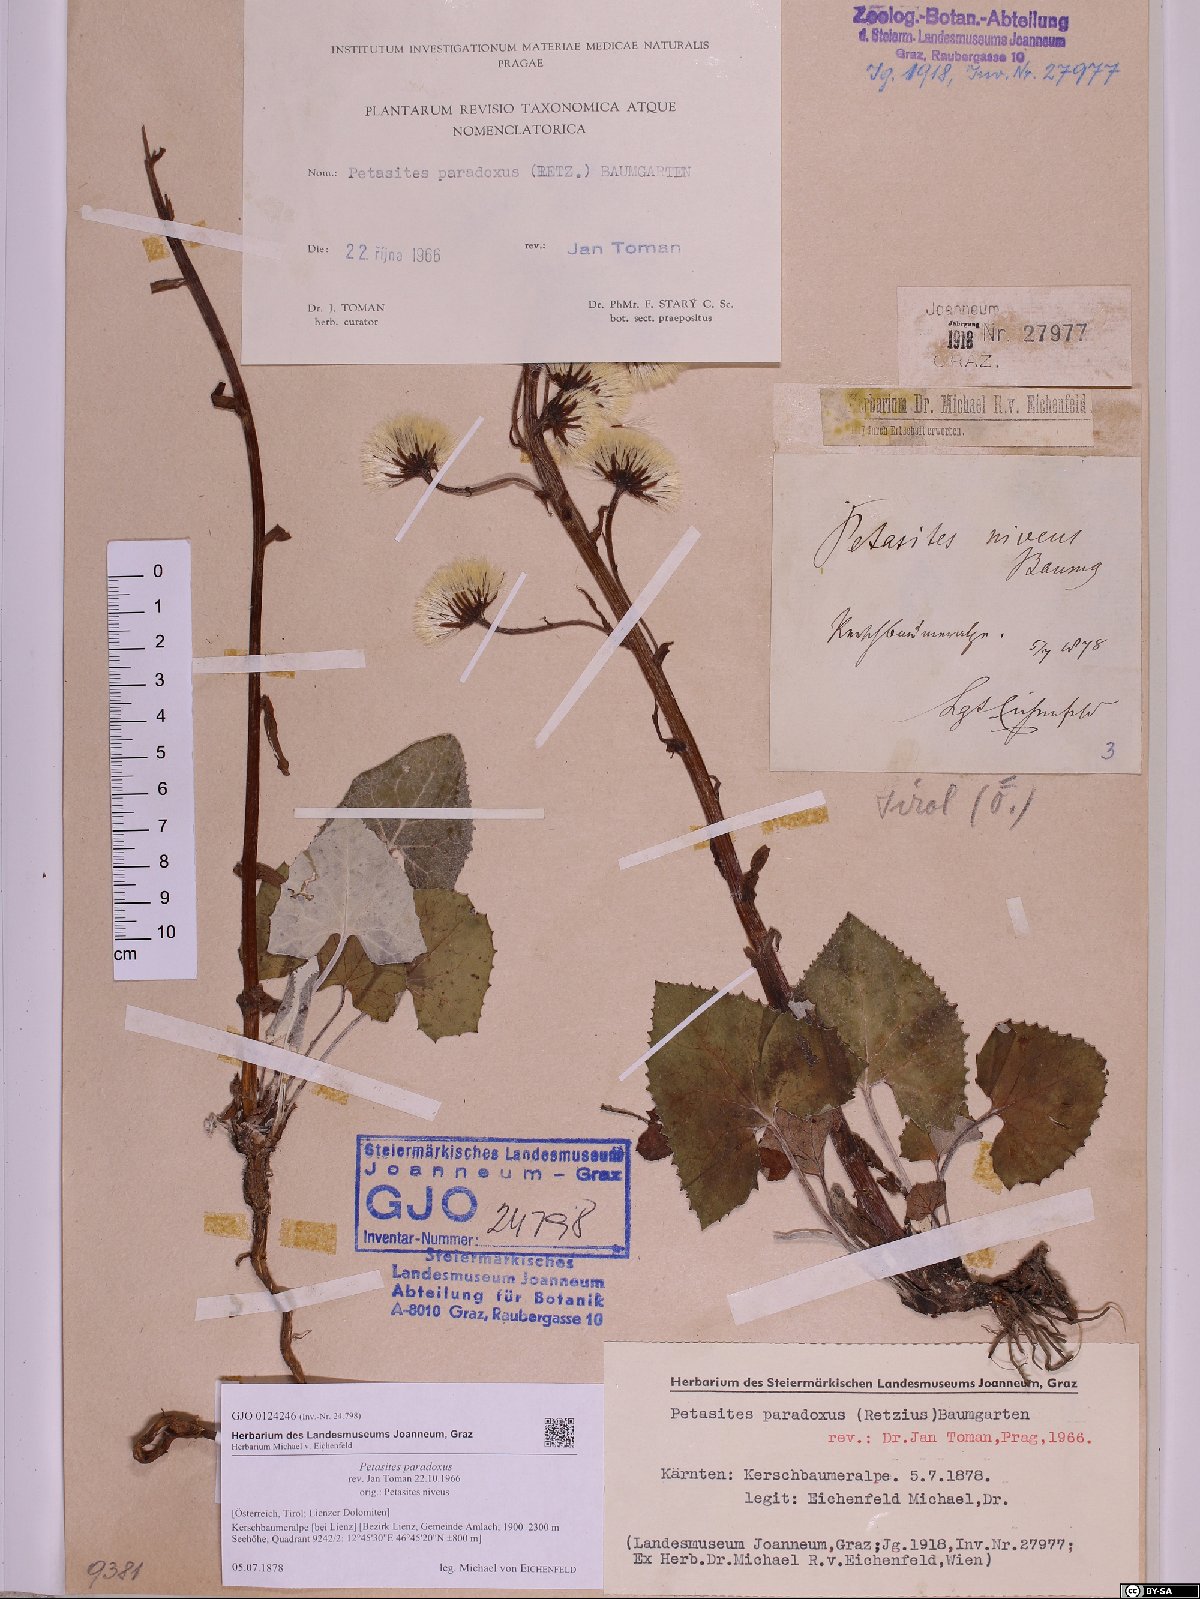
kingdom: Plantae
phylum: Tracheophyta
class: Magnoliopsida
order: Asterales
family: Asteraceae
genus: Petasites
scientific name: Petasites paradoxus
